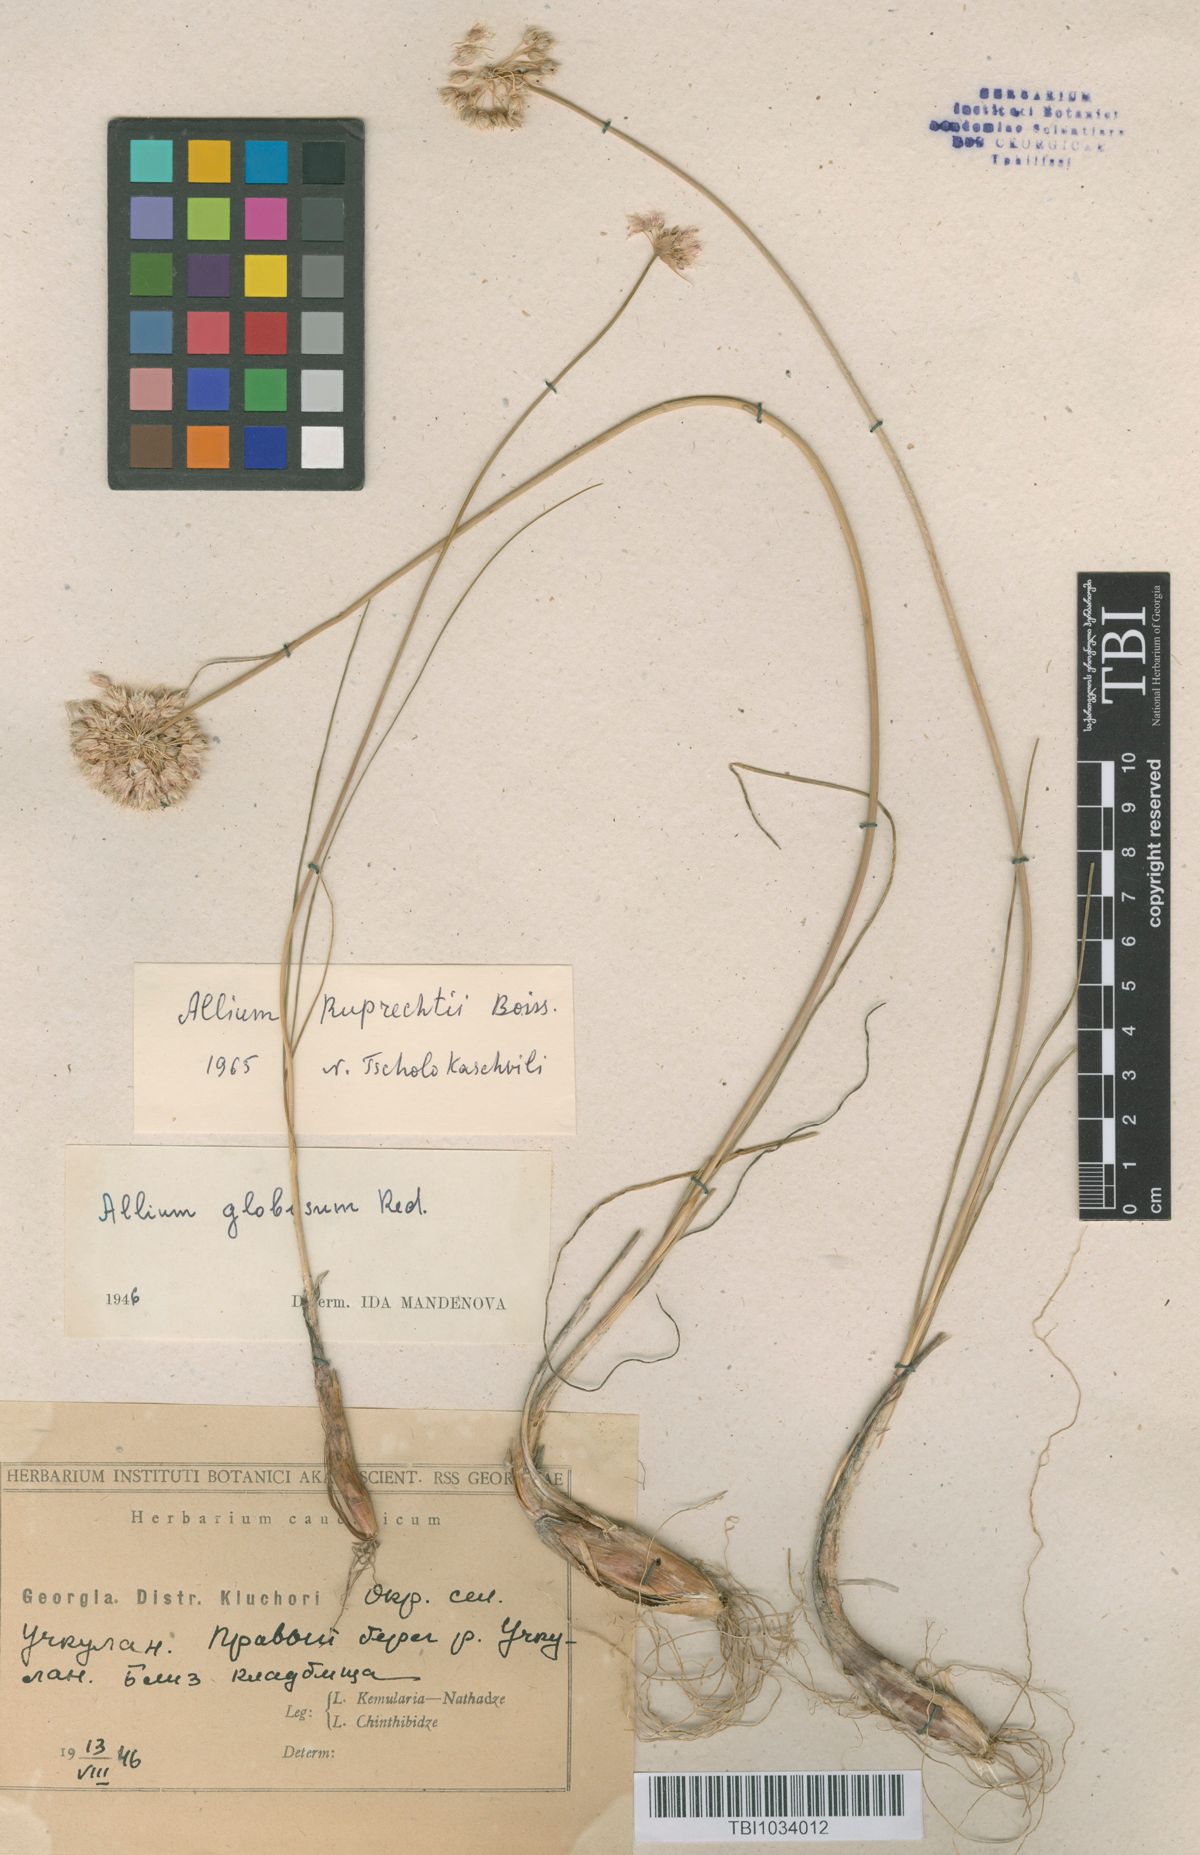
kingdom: Plantae
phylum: Tracheophyta
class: Liliopsida
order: Asparagales
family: Amaryllidaceae
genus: Allium
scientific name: Allium saxatile
